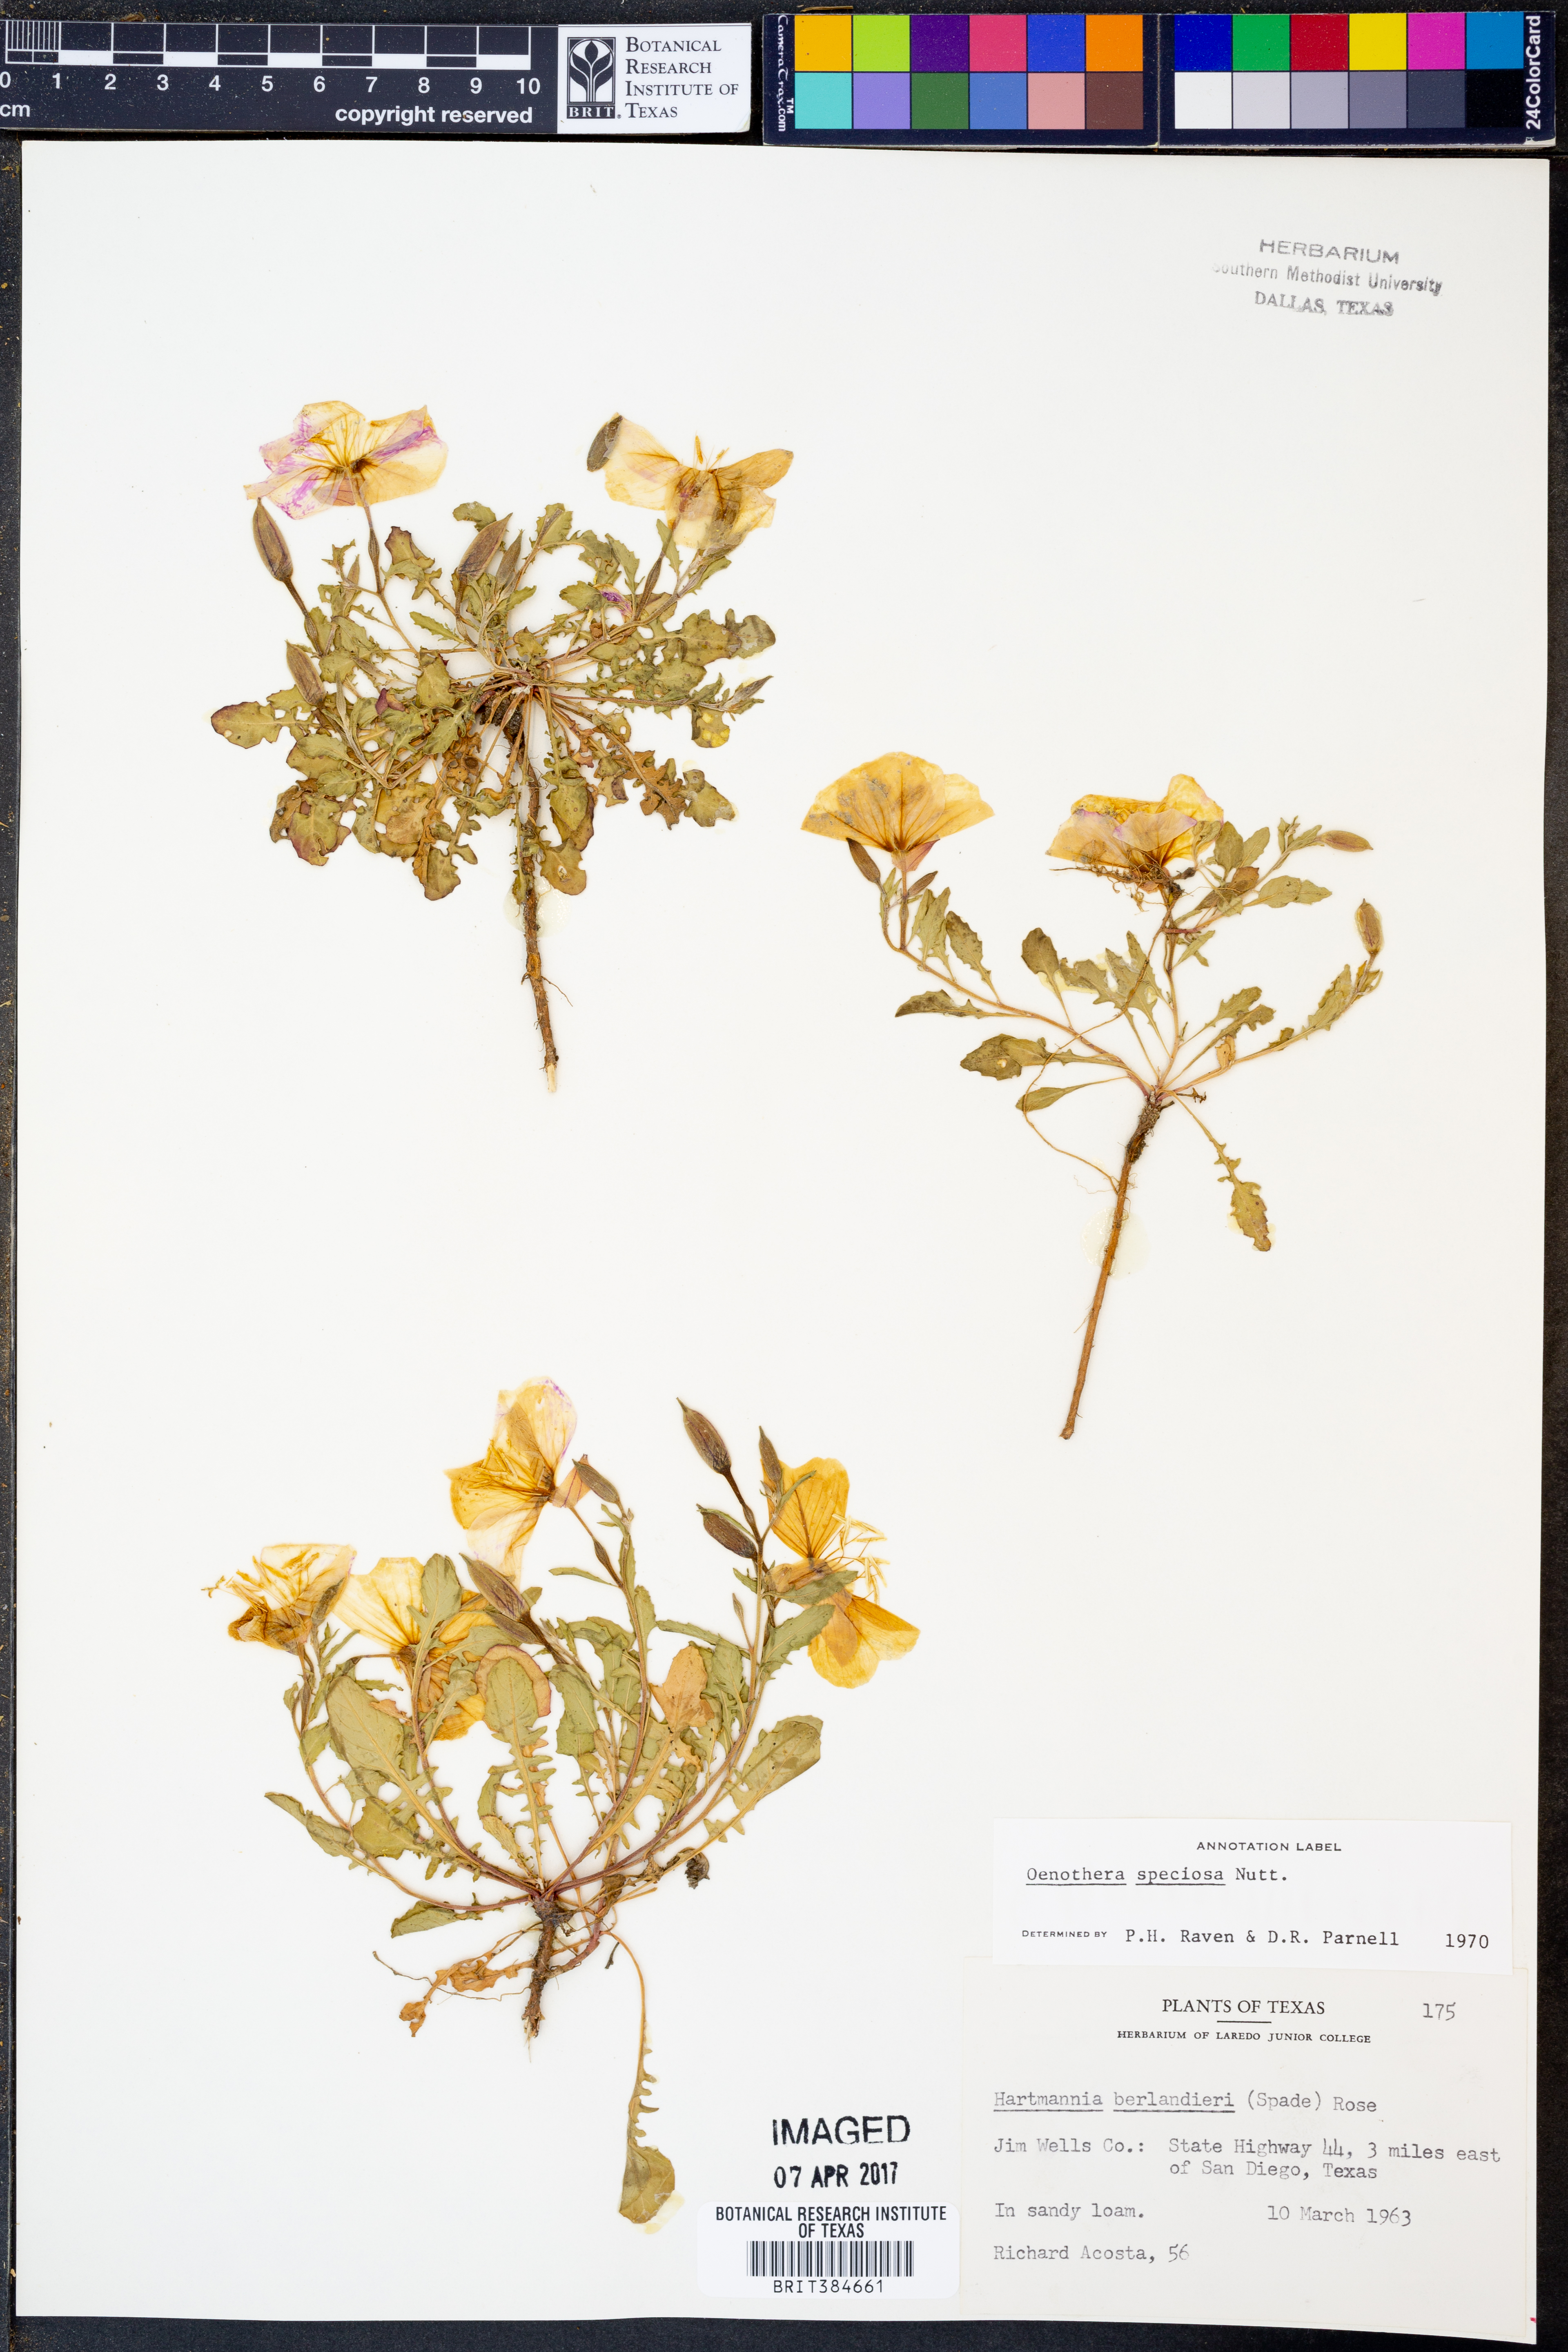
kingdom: Plantae
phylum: Tracheophyta
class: Magnoliopsida
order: Myrtales
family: Onagraceae
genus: Oenothera
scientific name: Oenothera speciosa
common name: White evening-primrose
